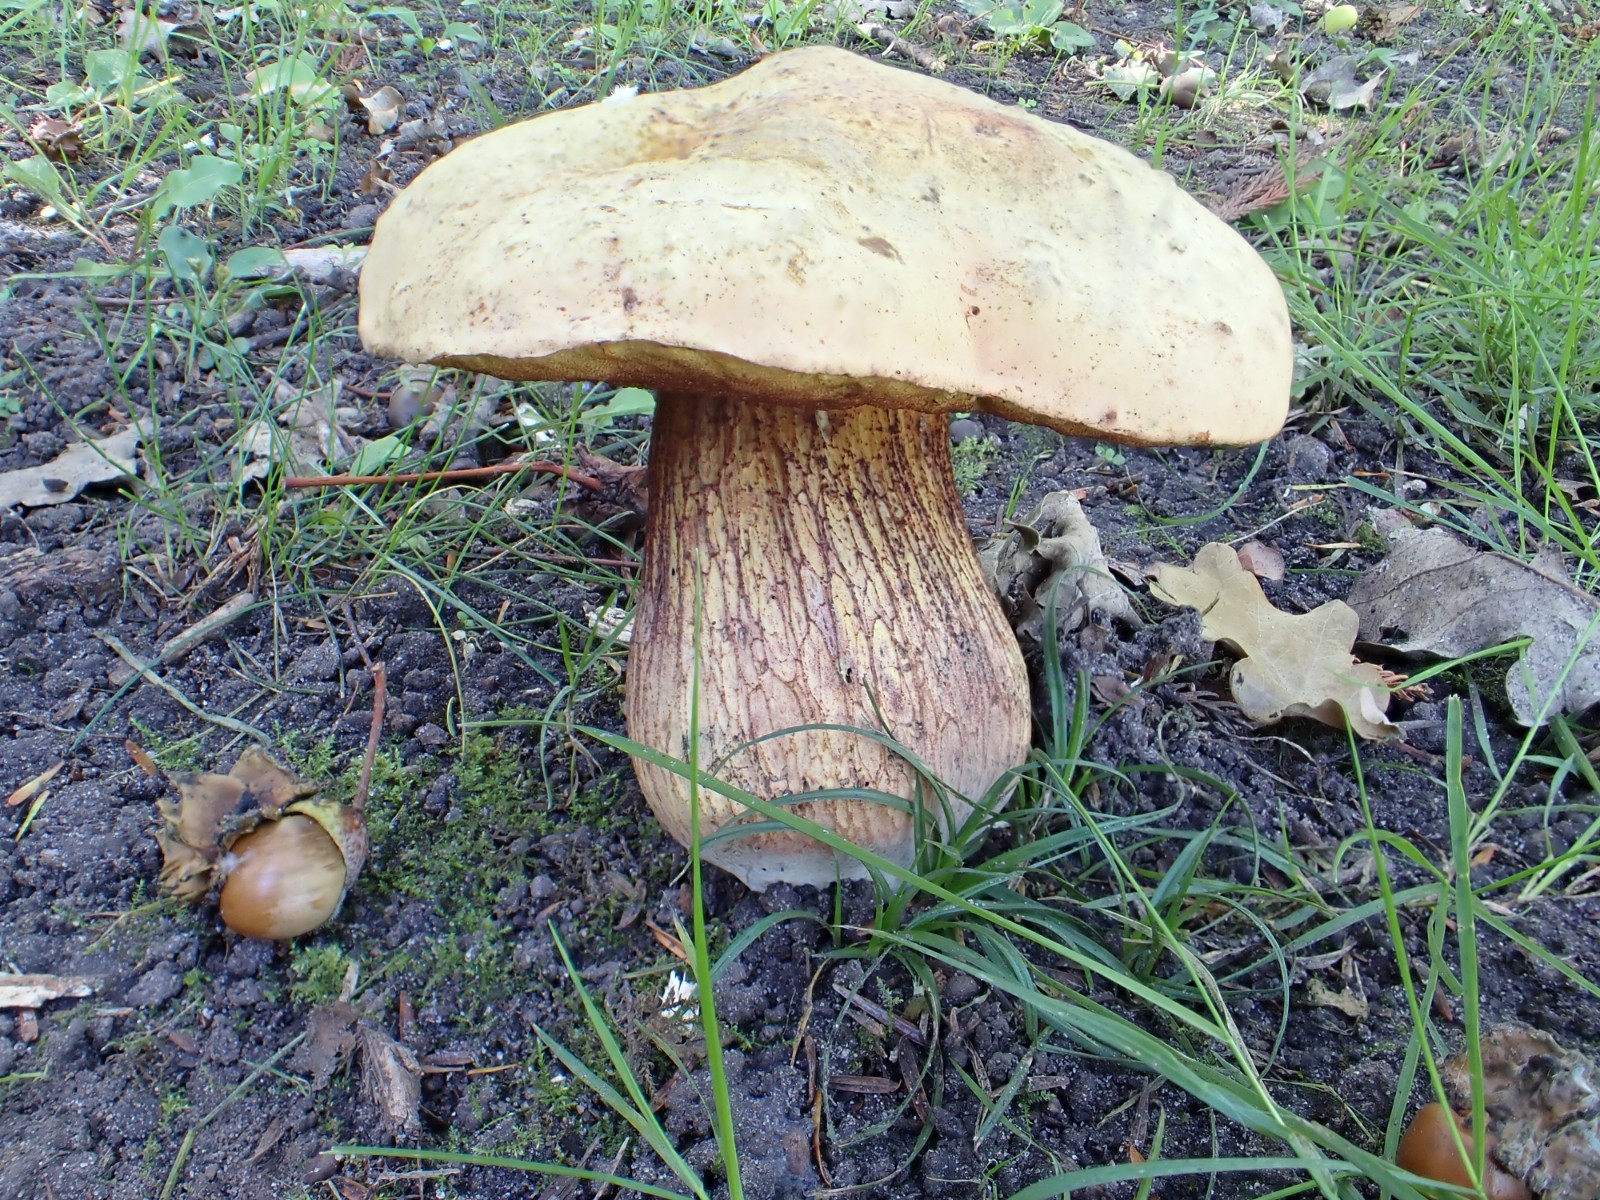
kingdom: Fungi
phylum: Basidiomycota
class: Agaricomycetes
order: Boletales
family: Boletaceae
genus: Suillellus
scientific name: Suillellus luridus
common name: netstokket indigorørhat
